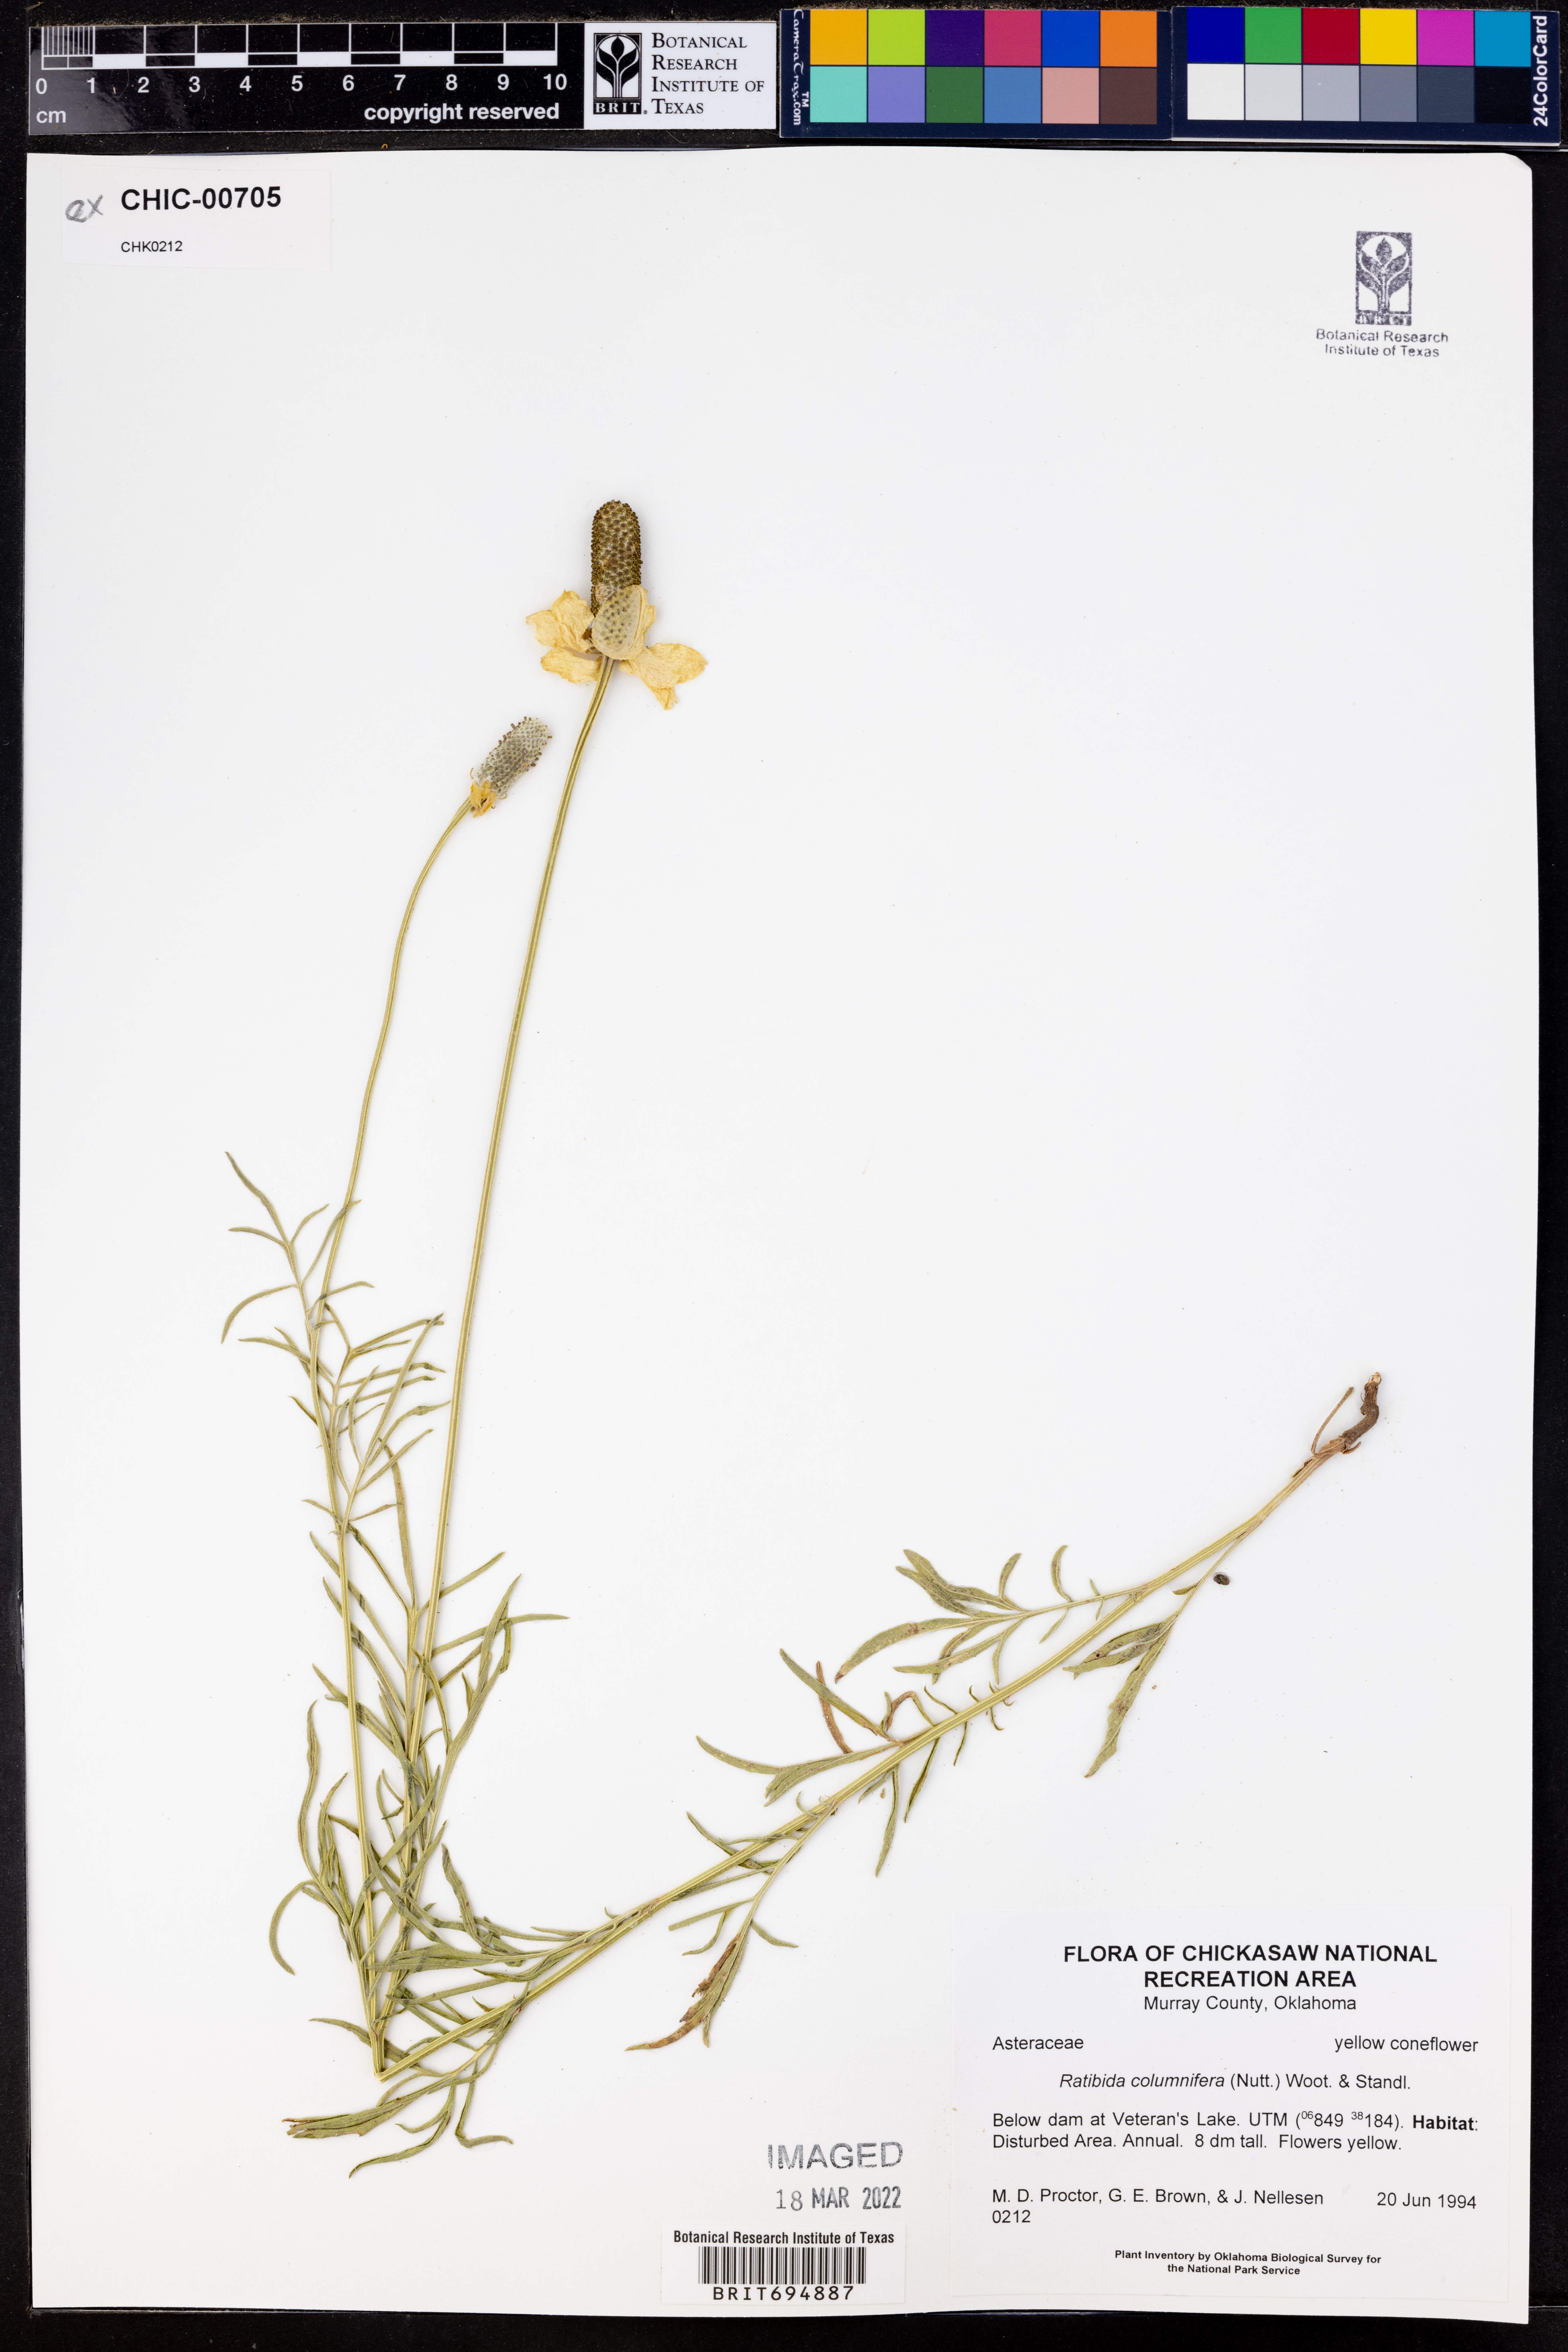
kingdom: Plantae
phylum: Tracheophyta
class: Magnoliopsida
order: Asterales
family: Asteraceae
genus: Ratibida
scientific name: Ratibida columnifera
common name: Prairie coneflower
